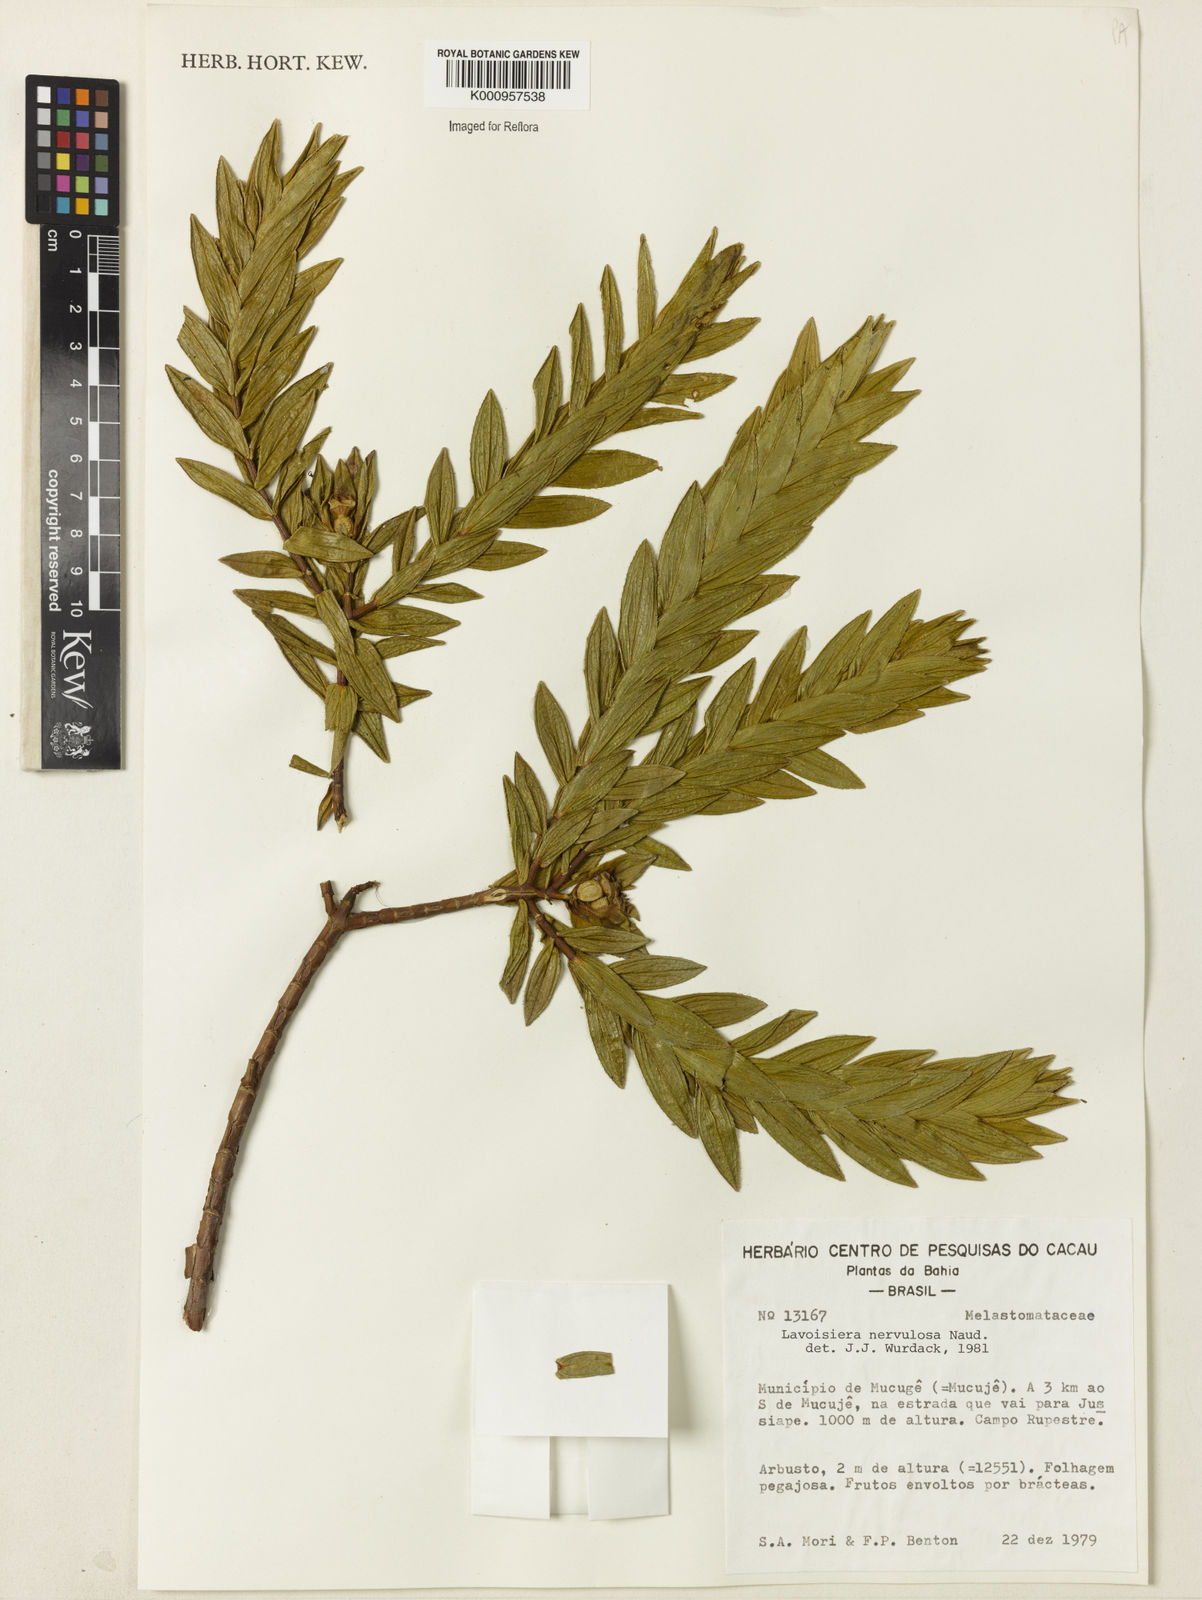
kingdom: Plantae
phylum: Tracheophyta
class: Magnoliopsida
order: Myrtales
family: Melastomataceae
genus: Microlicia
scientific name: Microlicia nervulosa
